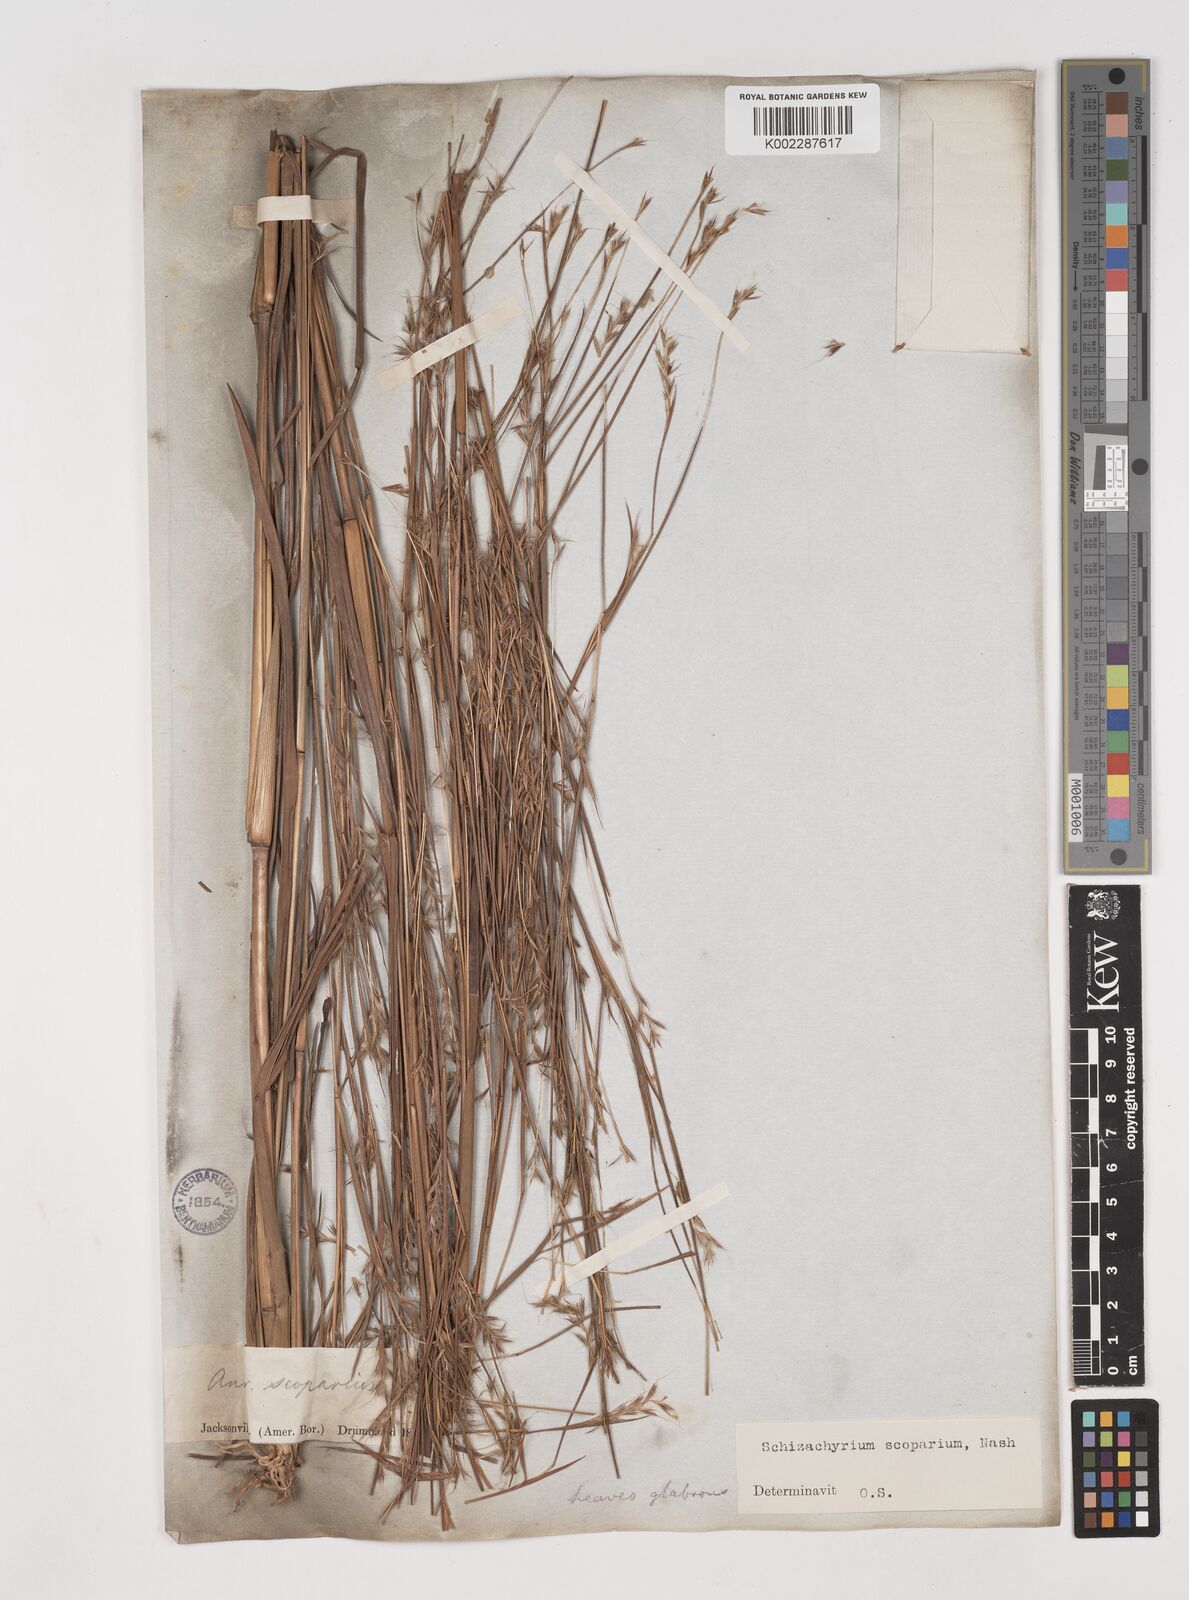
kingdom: Plantae
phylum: Tracheophyta
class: Liliopsida
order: Poales
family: Poaceae
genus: Schizachyrium
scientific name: Schizachyrium scoparium
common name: Little bluestem
